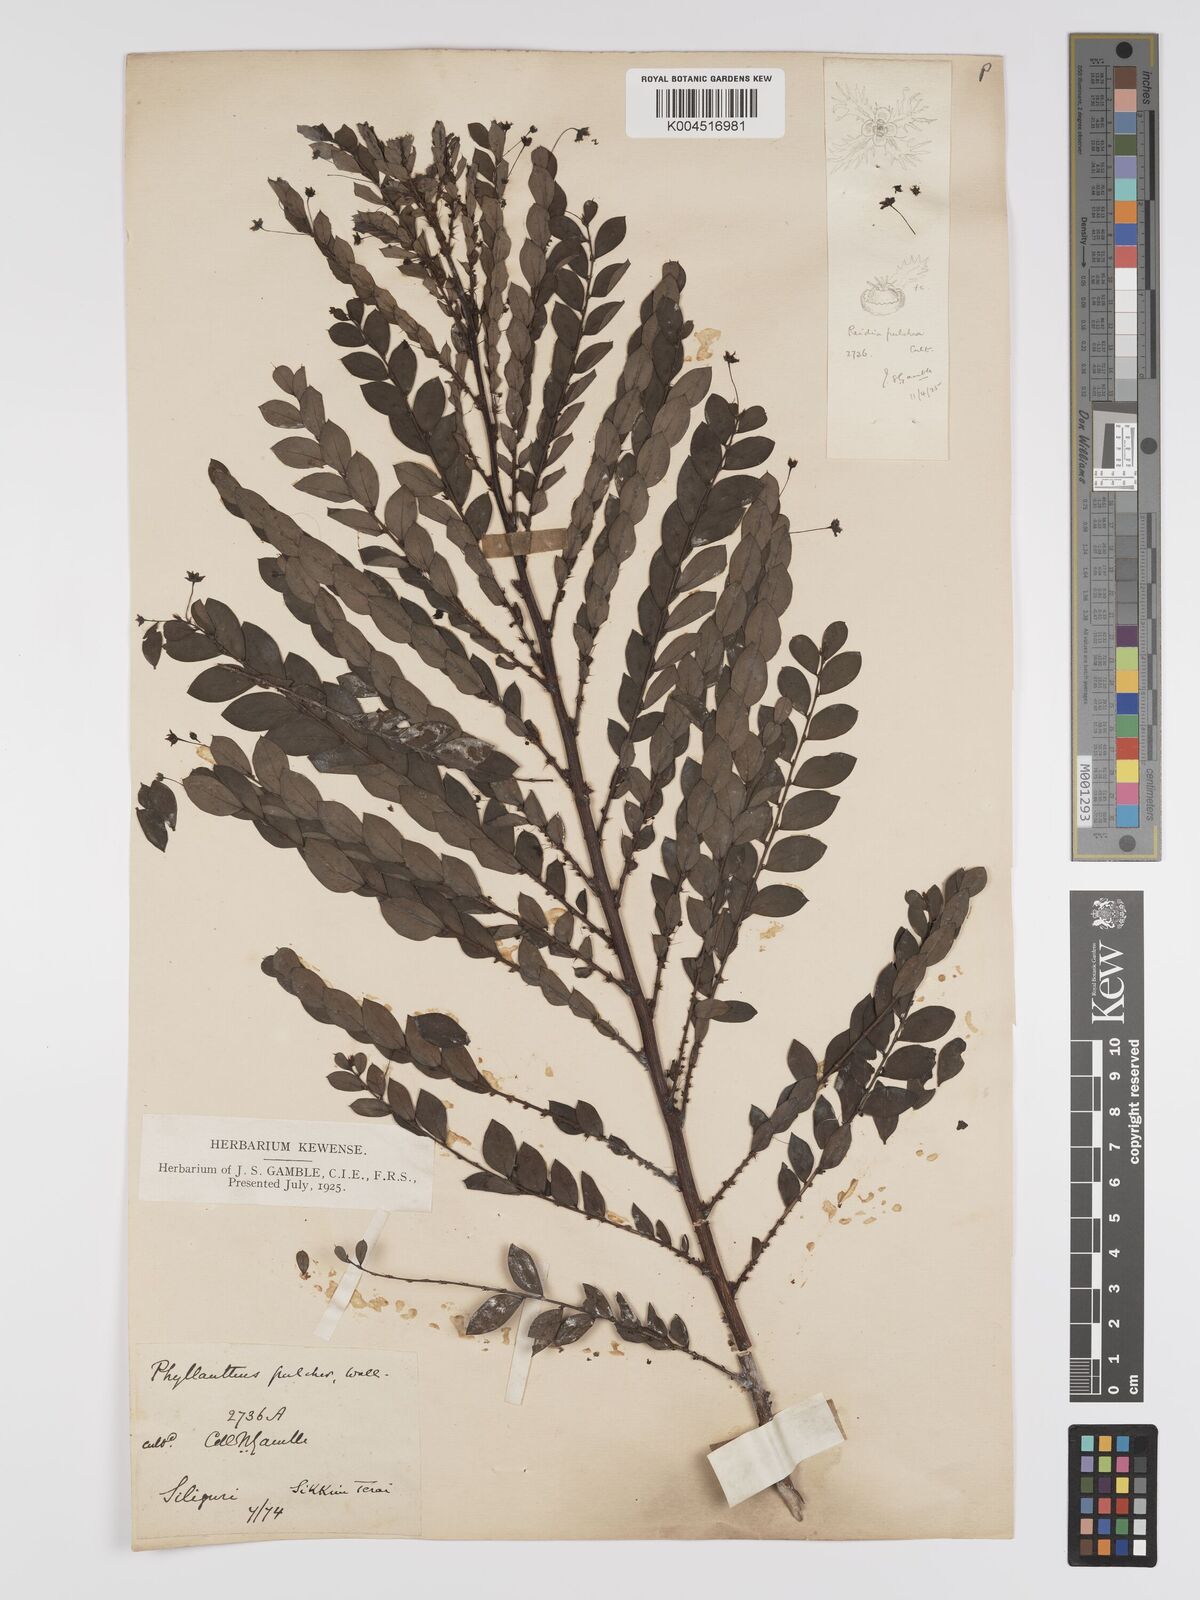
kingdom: Plantae
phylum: Tracheophyta
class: Magnoliopsida
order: Malpighiales
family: Phyllanthaceae
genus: Phyllanthus
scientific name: Phyllanthus pulcher
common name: Dragon-of-the-world
